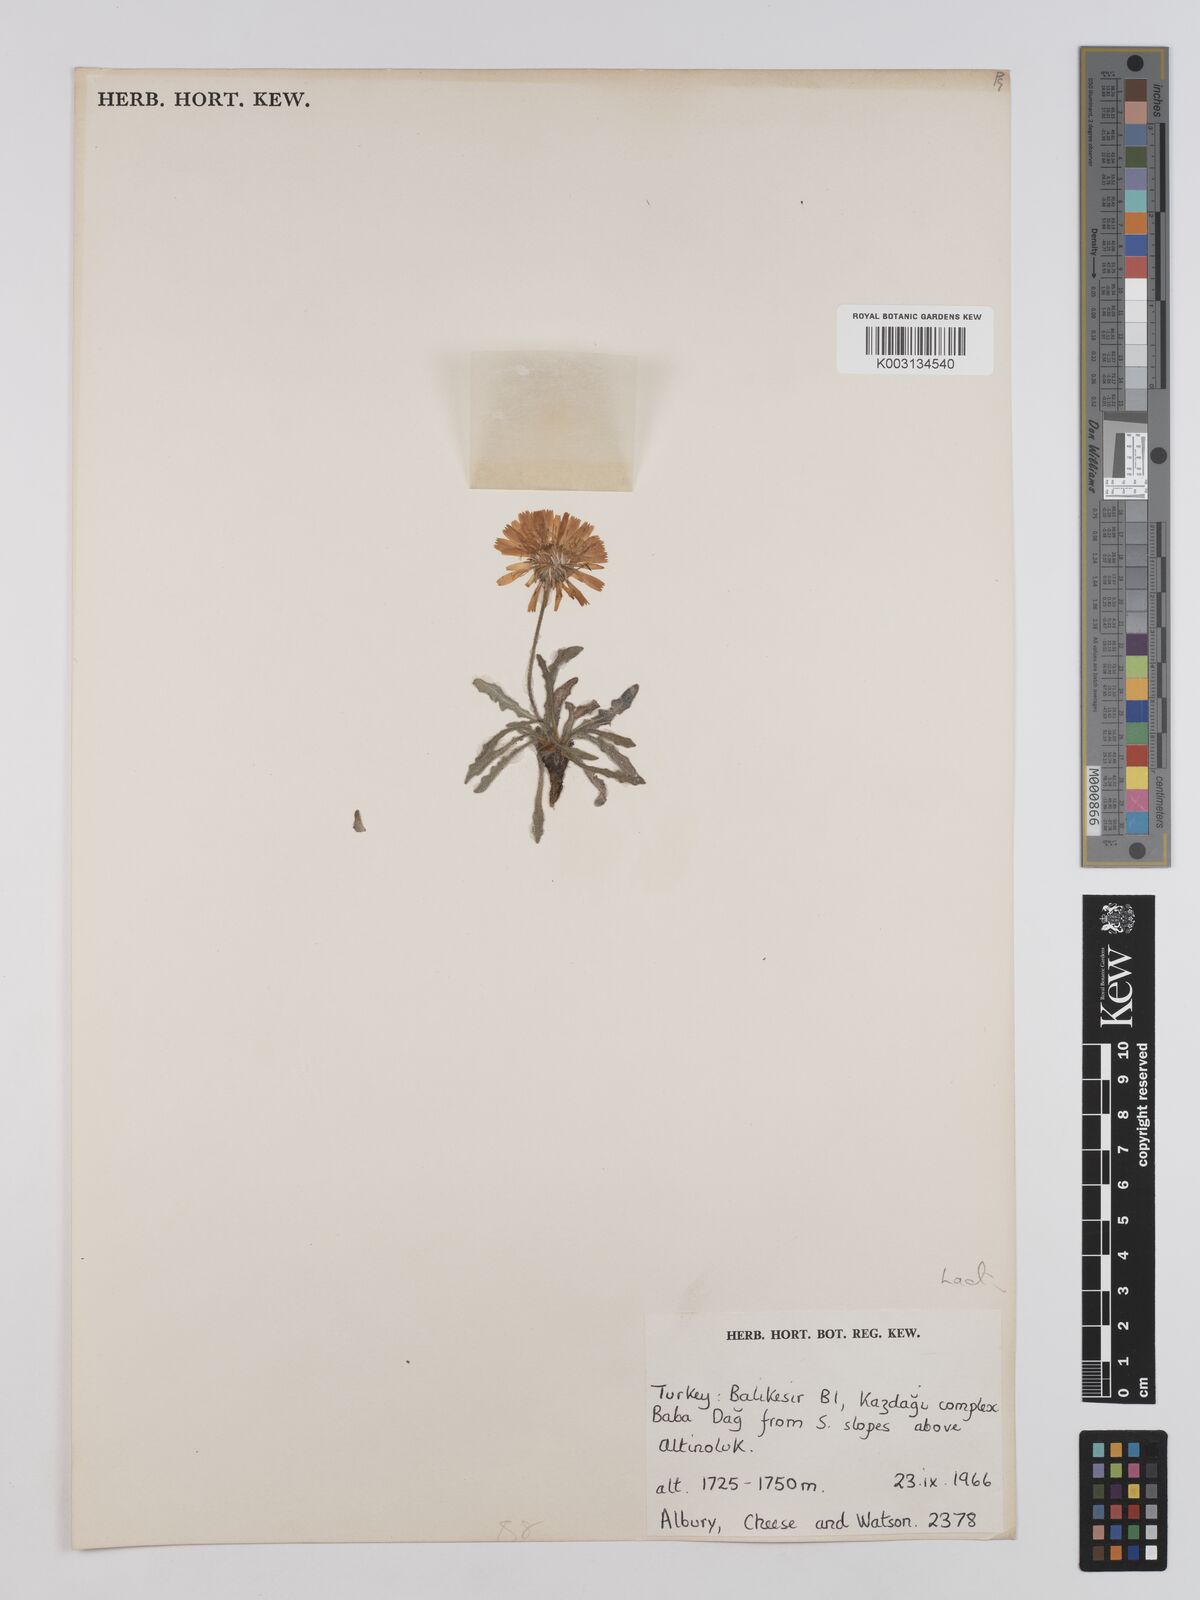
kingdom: Plantae
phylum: Tracheophyta
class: Magnoliopsida
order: Asterales
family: Asteraceae
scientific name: Asteraceae
